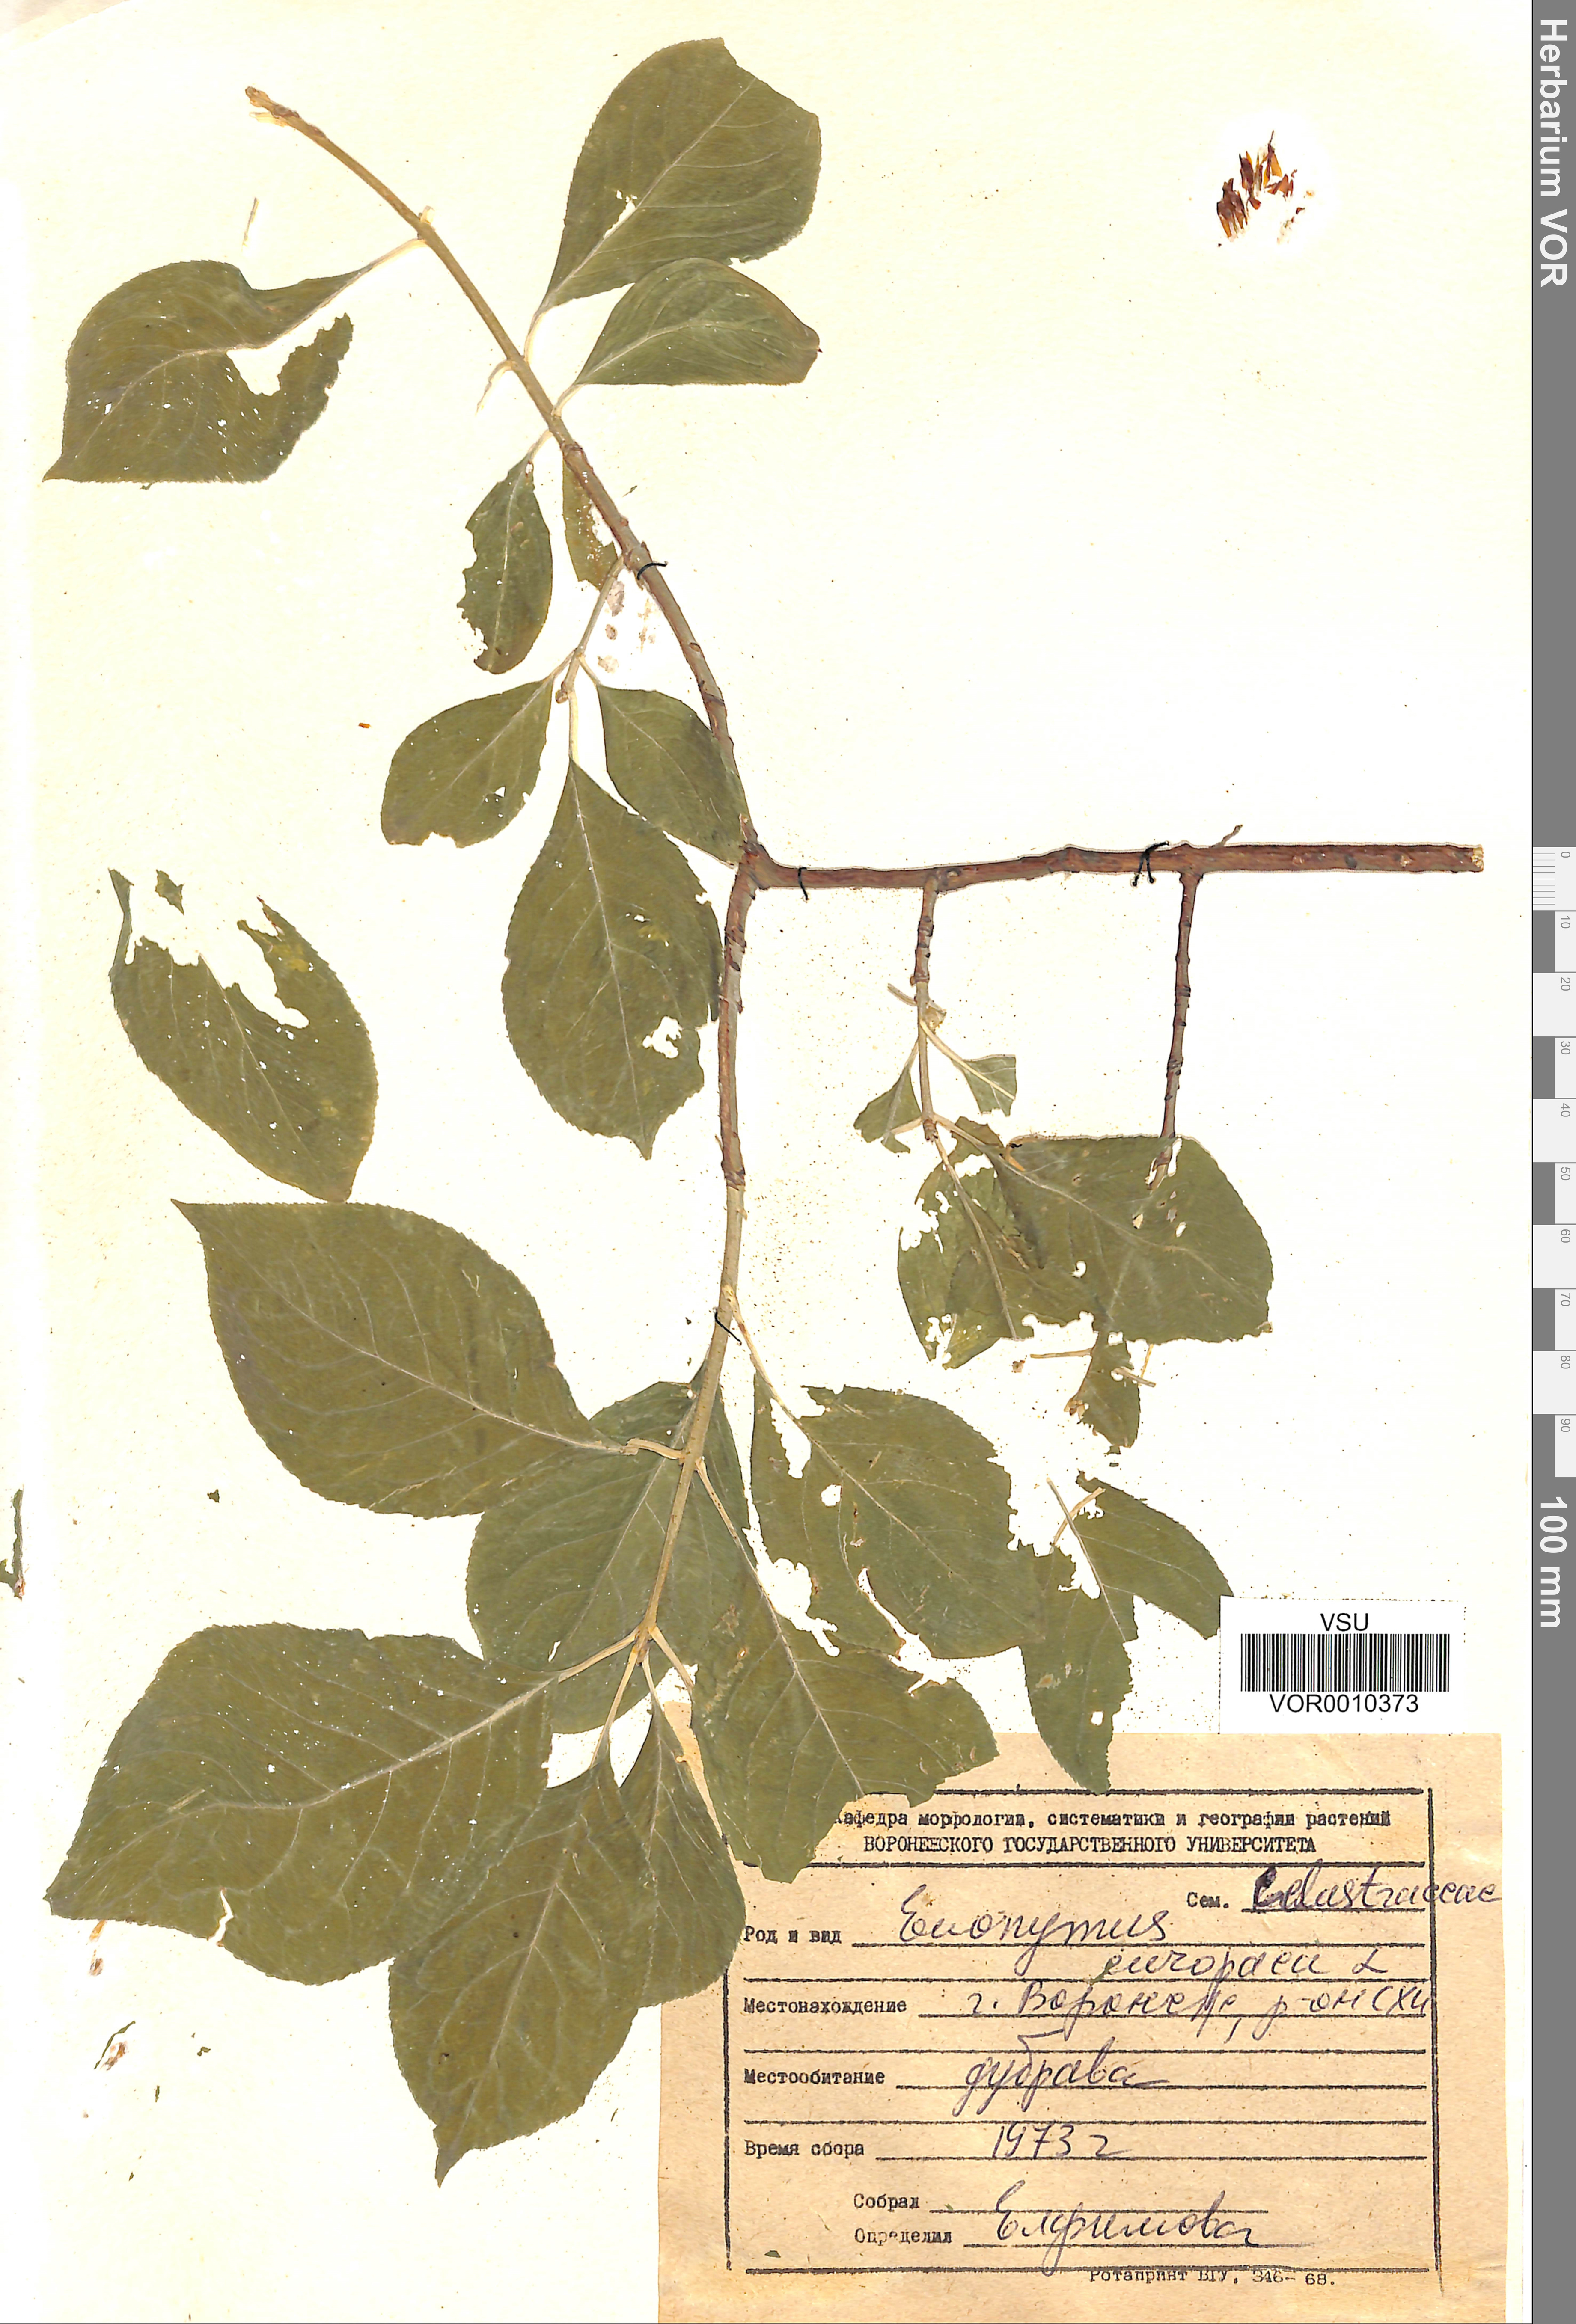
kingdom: Plantae
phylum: Tracheophyta
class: Magnoliopsida
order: Celastrales
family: Celastraceae
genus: Euonymus
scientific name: Euonymus europaeus
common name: Spindle
